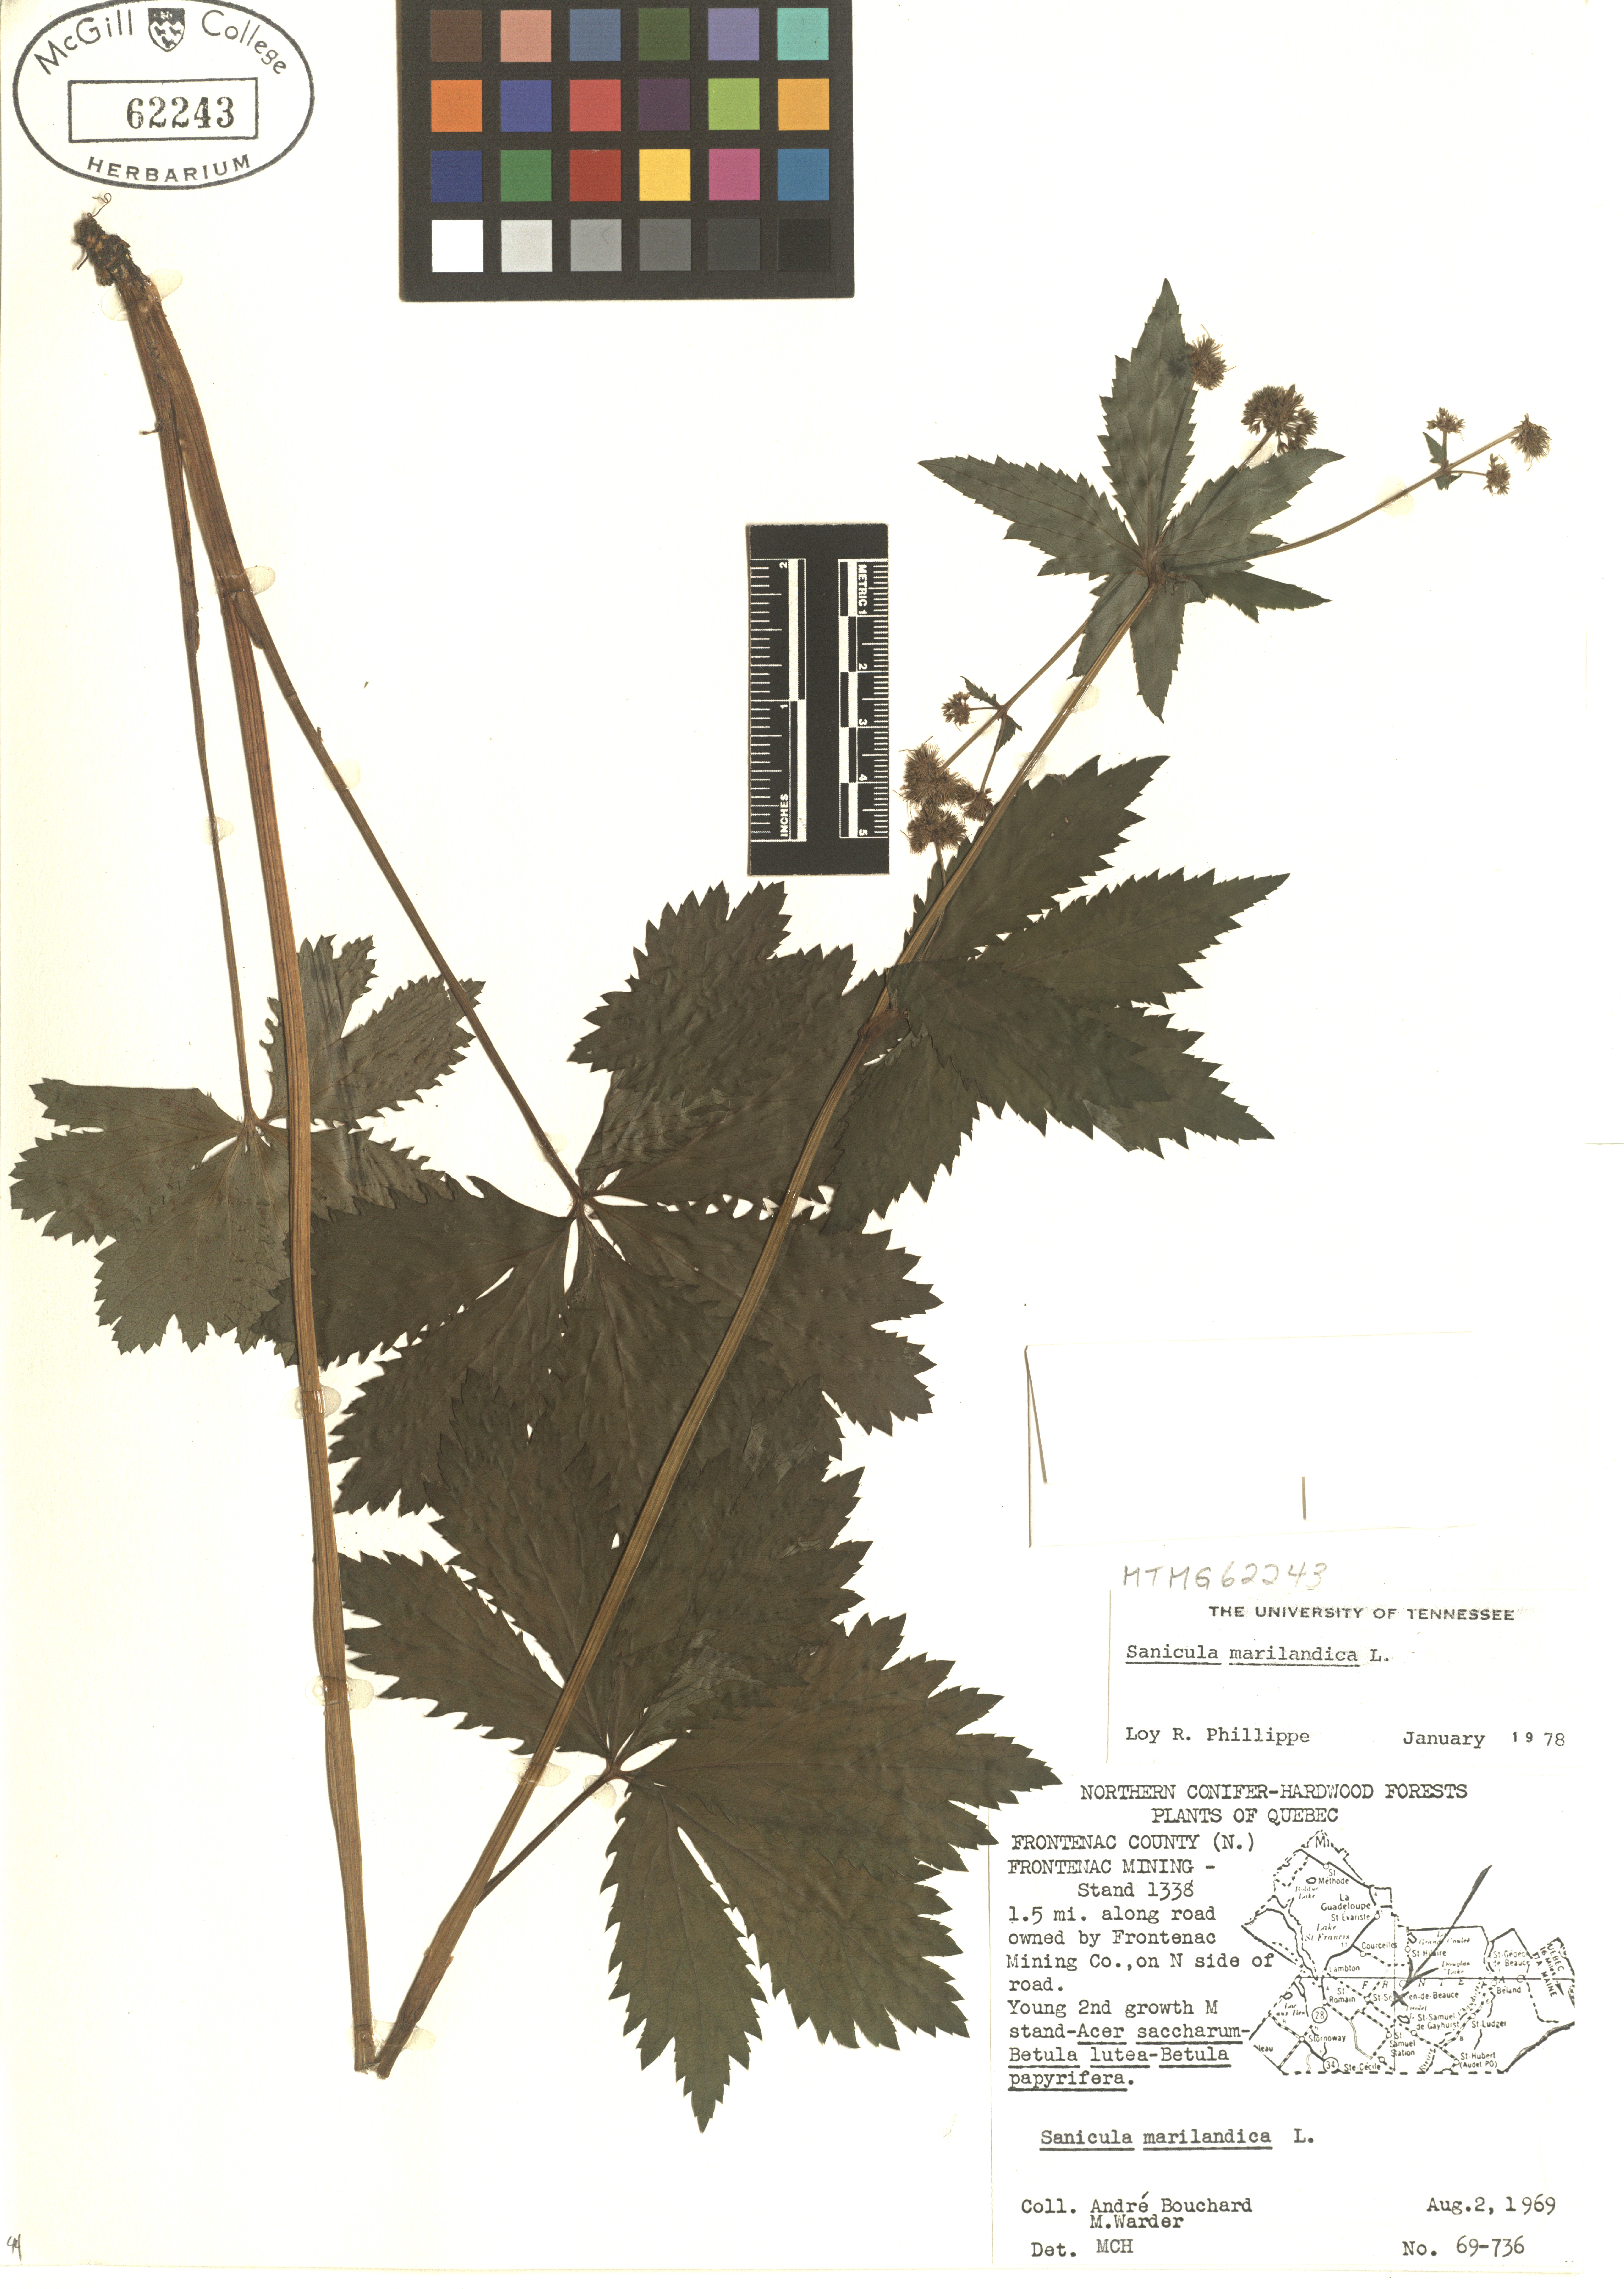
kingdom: Plantae
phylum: Tracheophyta
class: Magnoliopsida
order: Apiales
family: Apiaceae
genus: Sanicula
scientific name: Sanicula marilandica
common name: Black snakeroot
